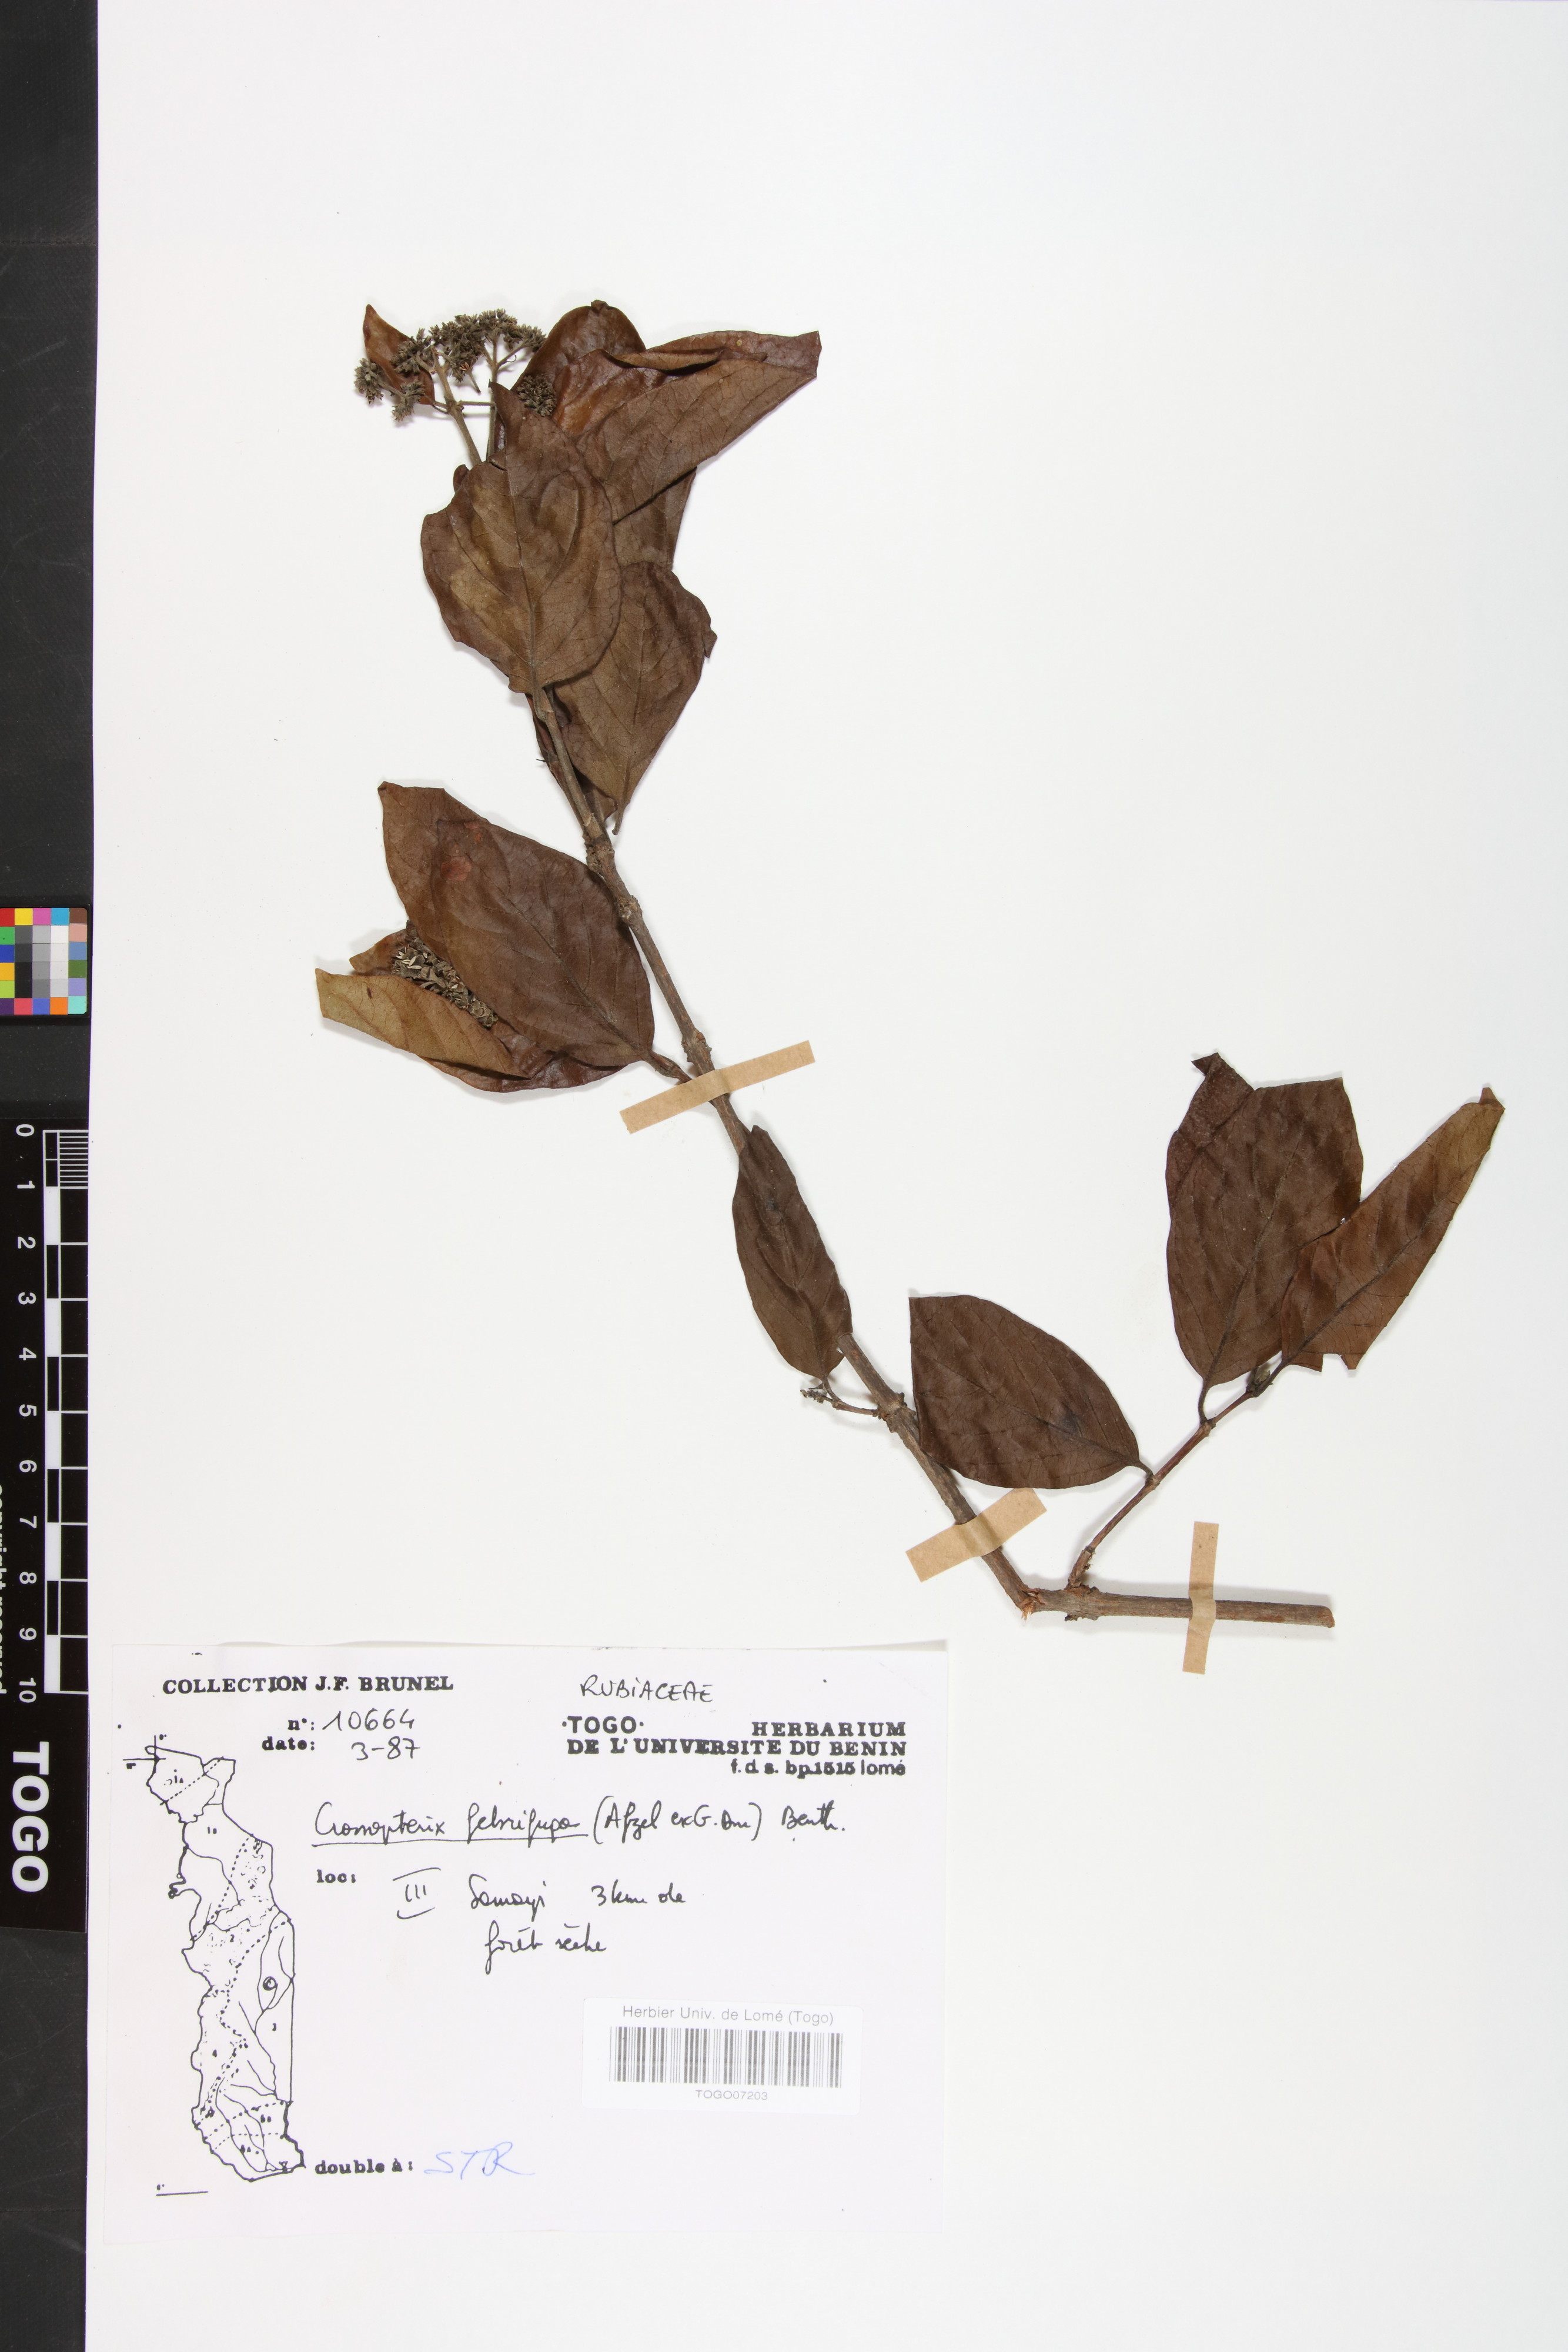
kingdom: Plantae
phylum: Tracheophyta
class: Magnoliopsida
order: Gentianales
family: Rubiaceae
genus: Crossopteryx
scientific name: Crossopteryx febrifuga
